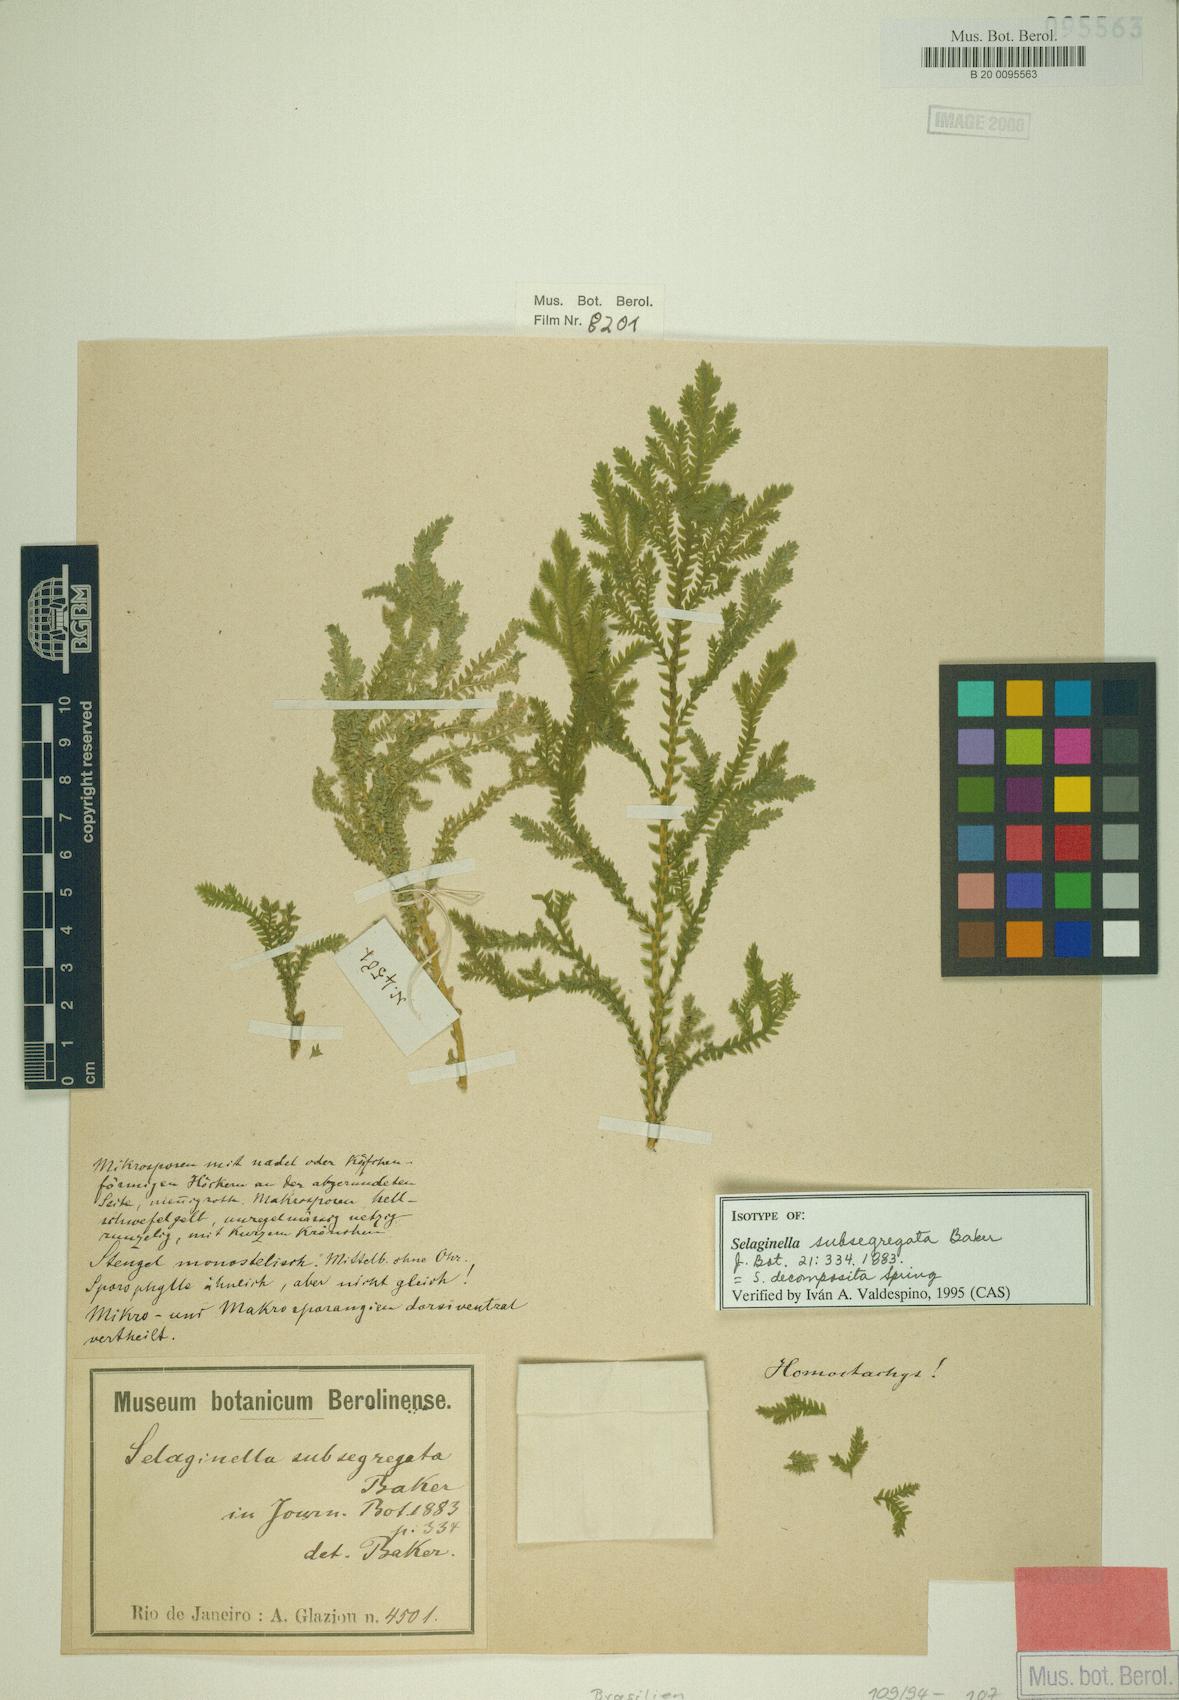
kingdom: Plantae
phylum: Tracheophyta
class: Lycopodiopsida
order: Selaginellales
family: Selaginellaceae
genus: Selaginella
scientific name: Selaginella decomposita
